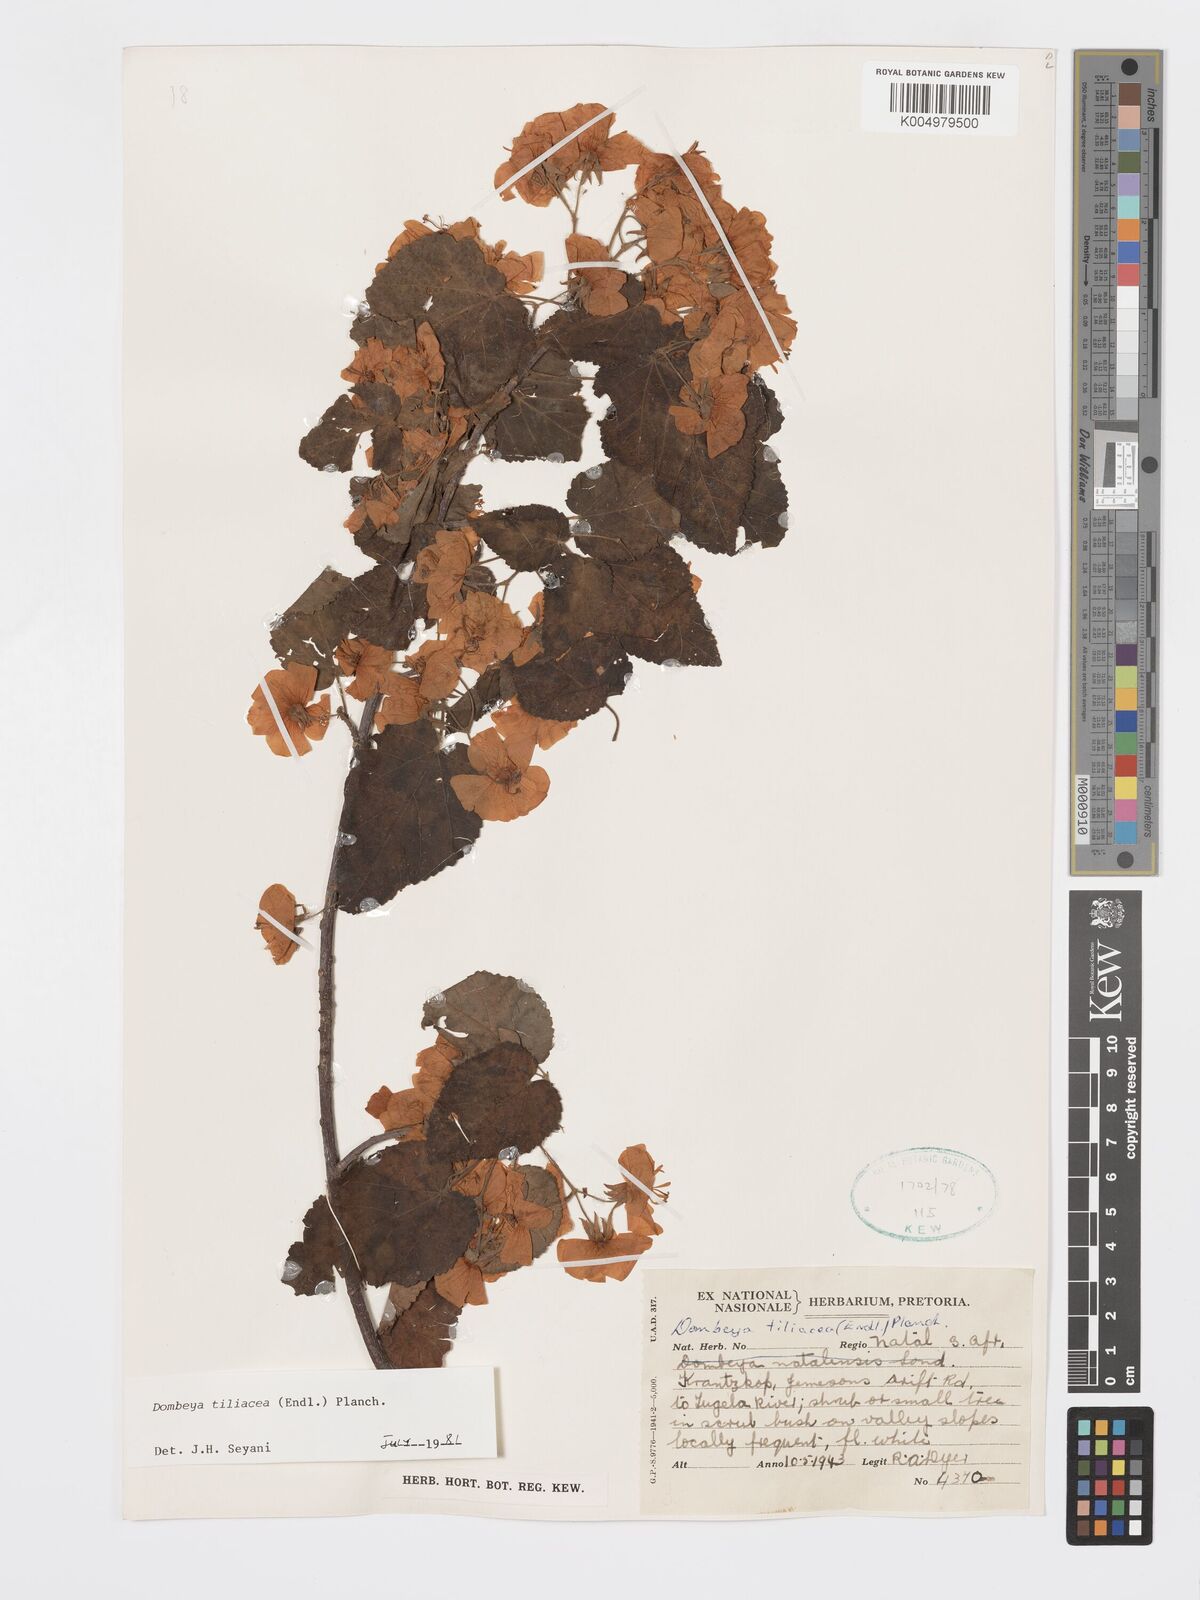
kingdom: Plantae
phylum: Tracheophyta
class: Magnoliopsida
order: Malvales
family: Malvaceae
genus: Dombeya
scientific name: Dombeya tiliacea
